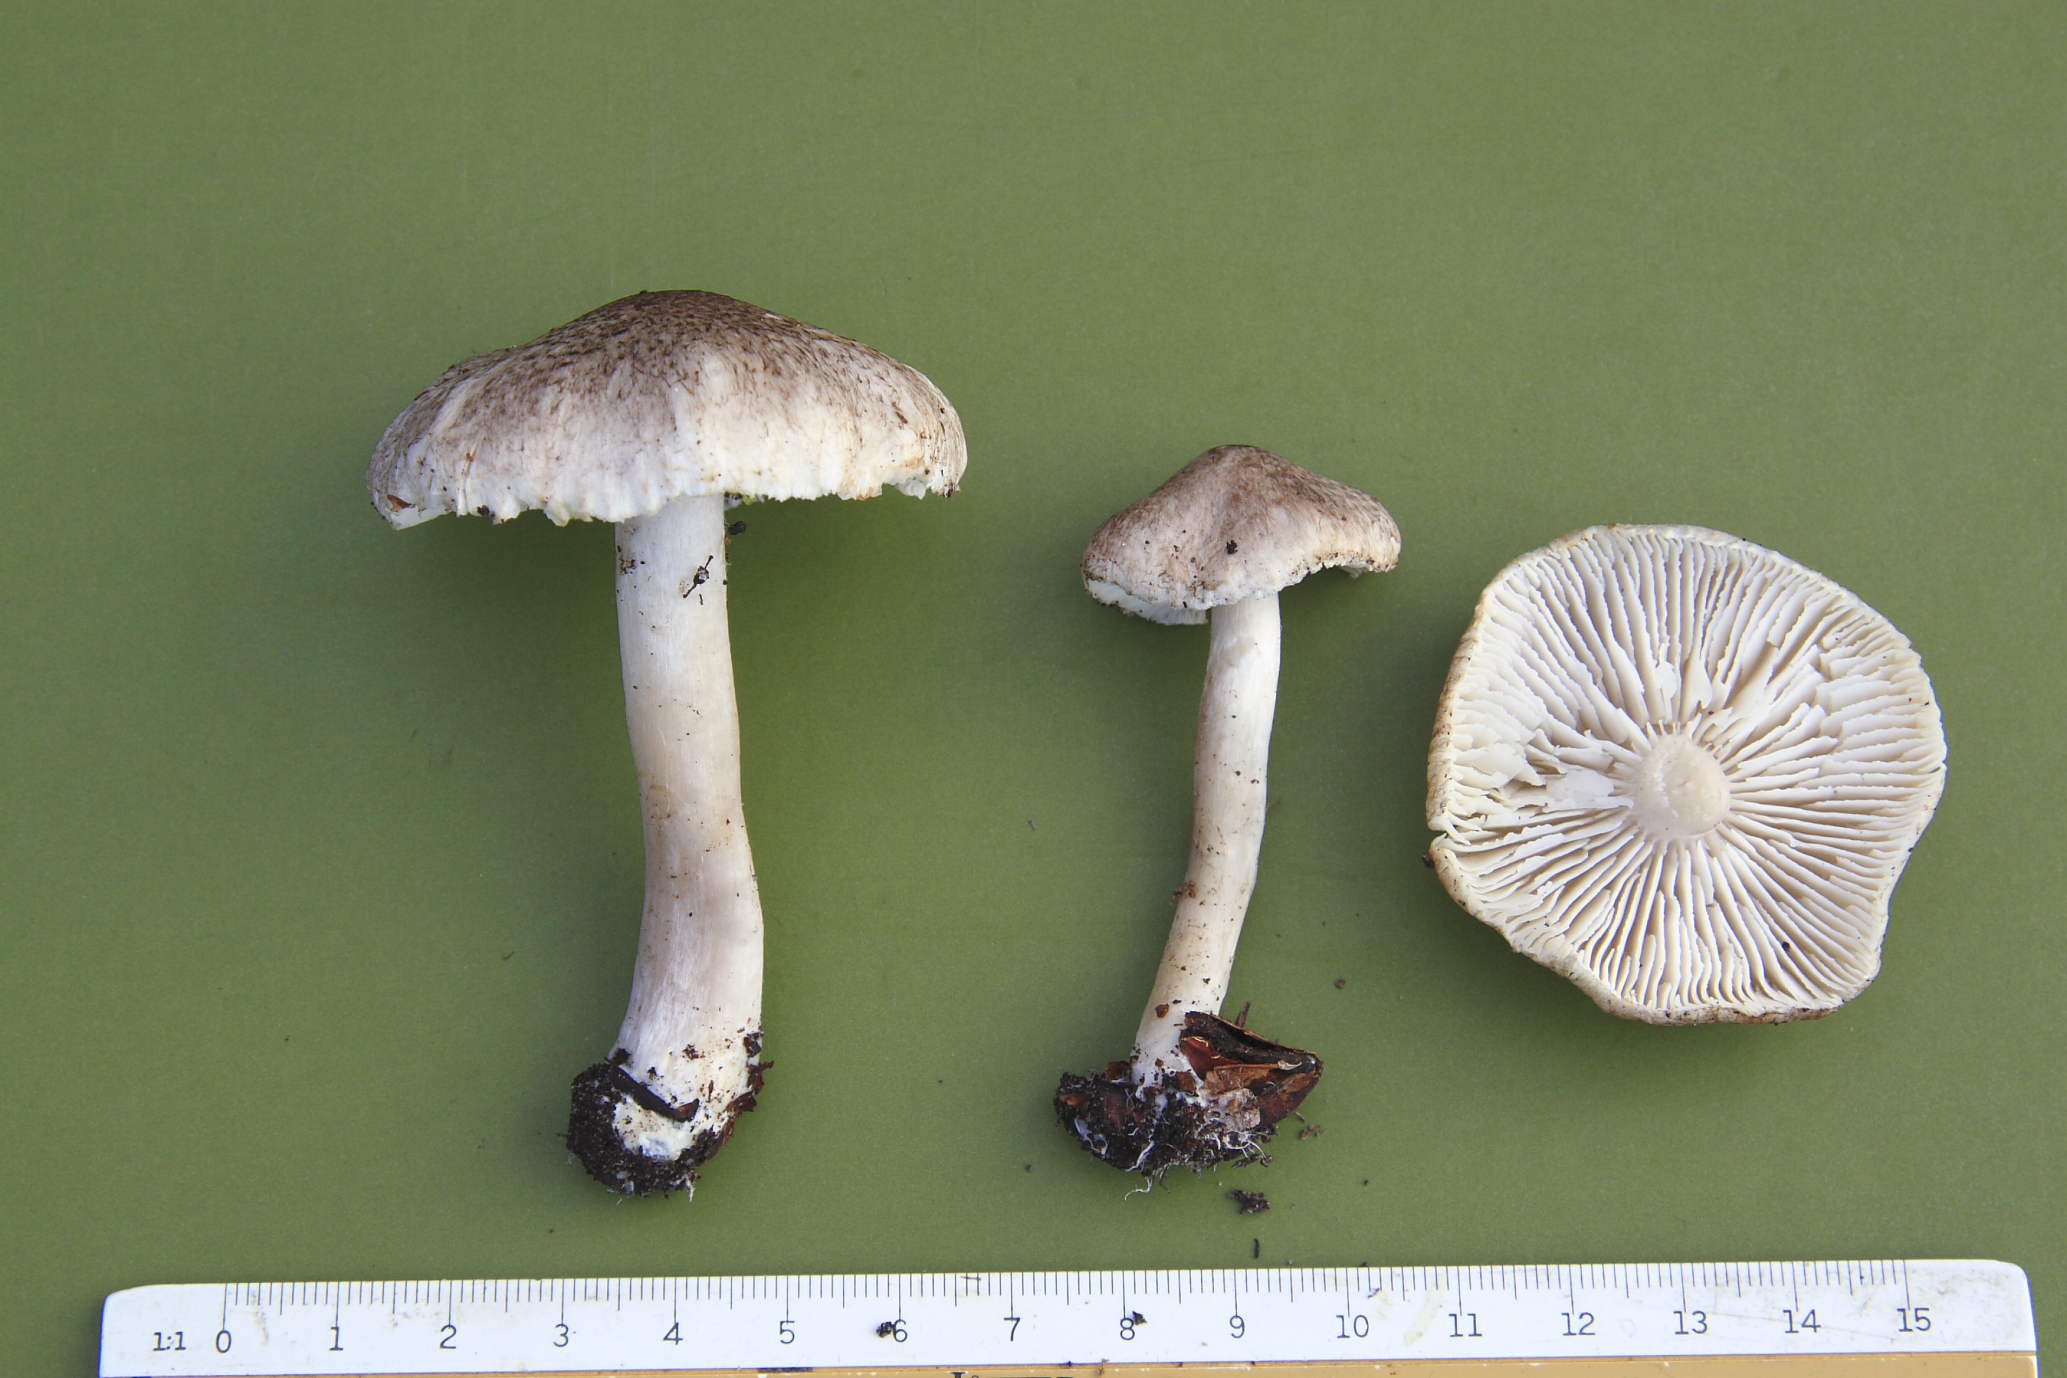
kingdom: Fungi
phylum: Basidiomycota
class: Agaricomycetes
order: Agaricales
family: Tricholomataceae
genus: Tricholoma
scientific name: Tricholoma scalpturatum
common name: gulplettet ridderhat
